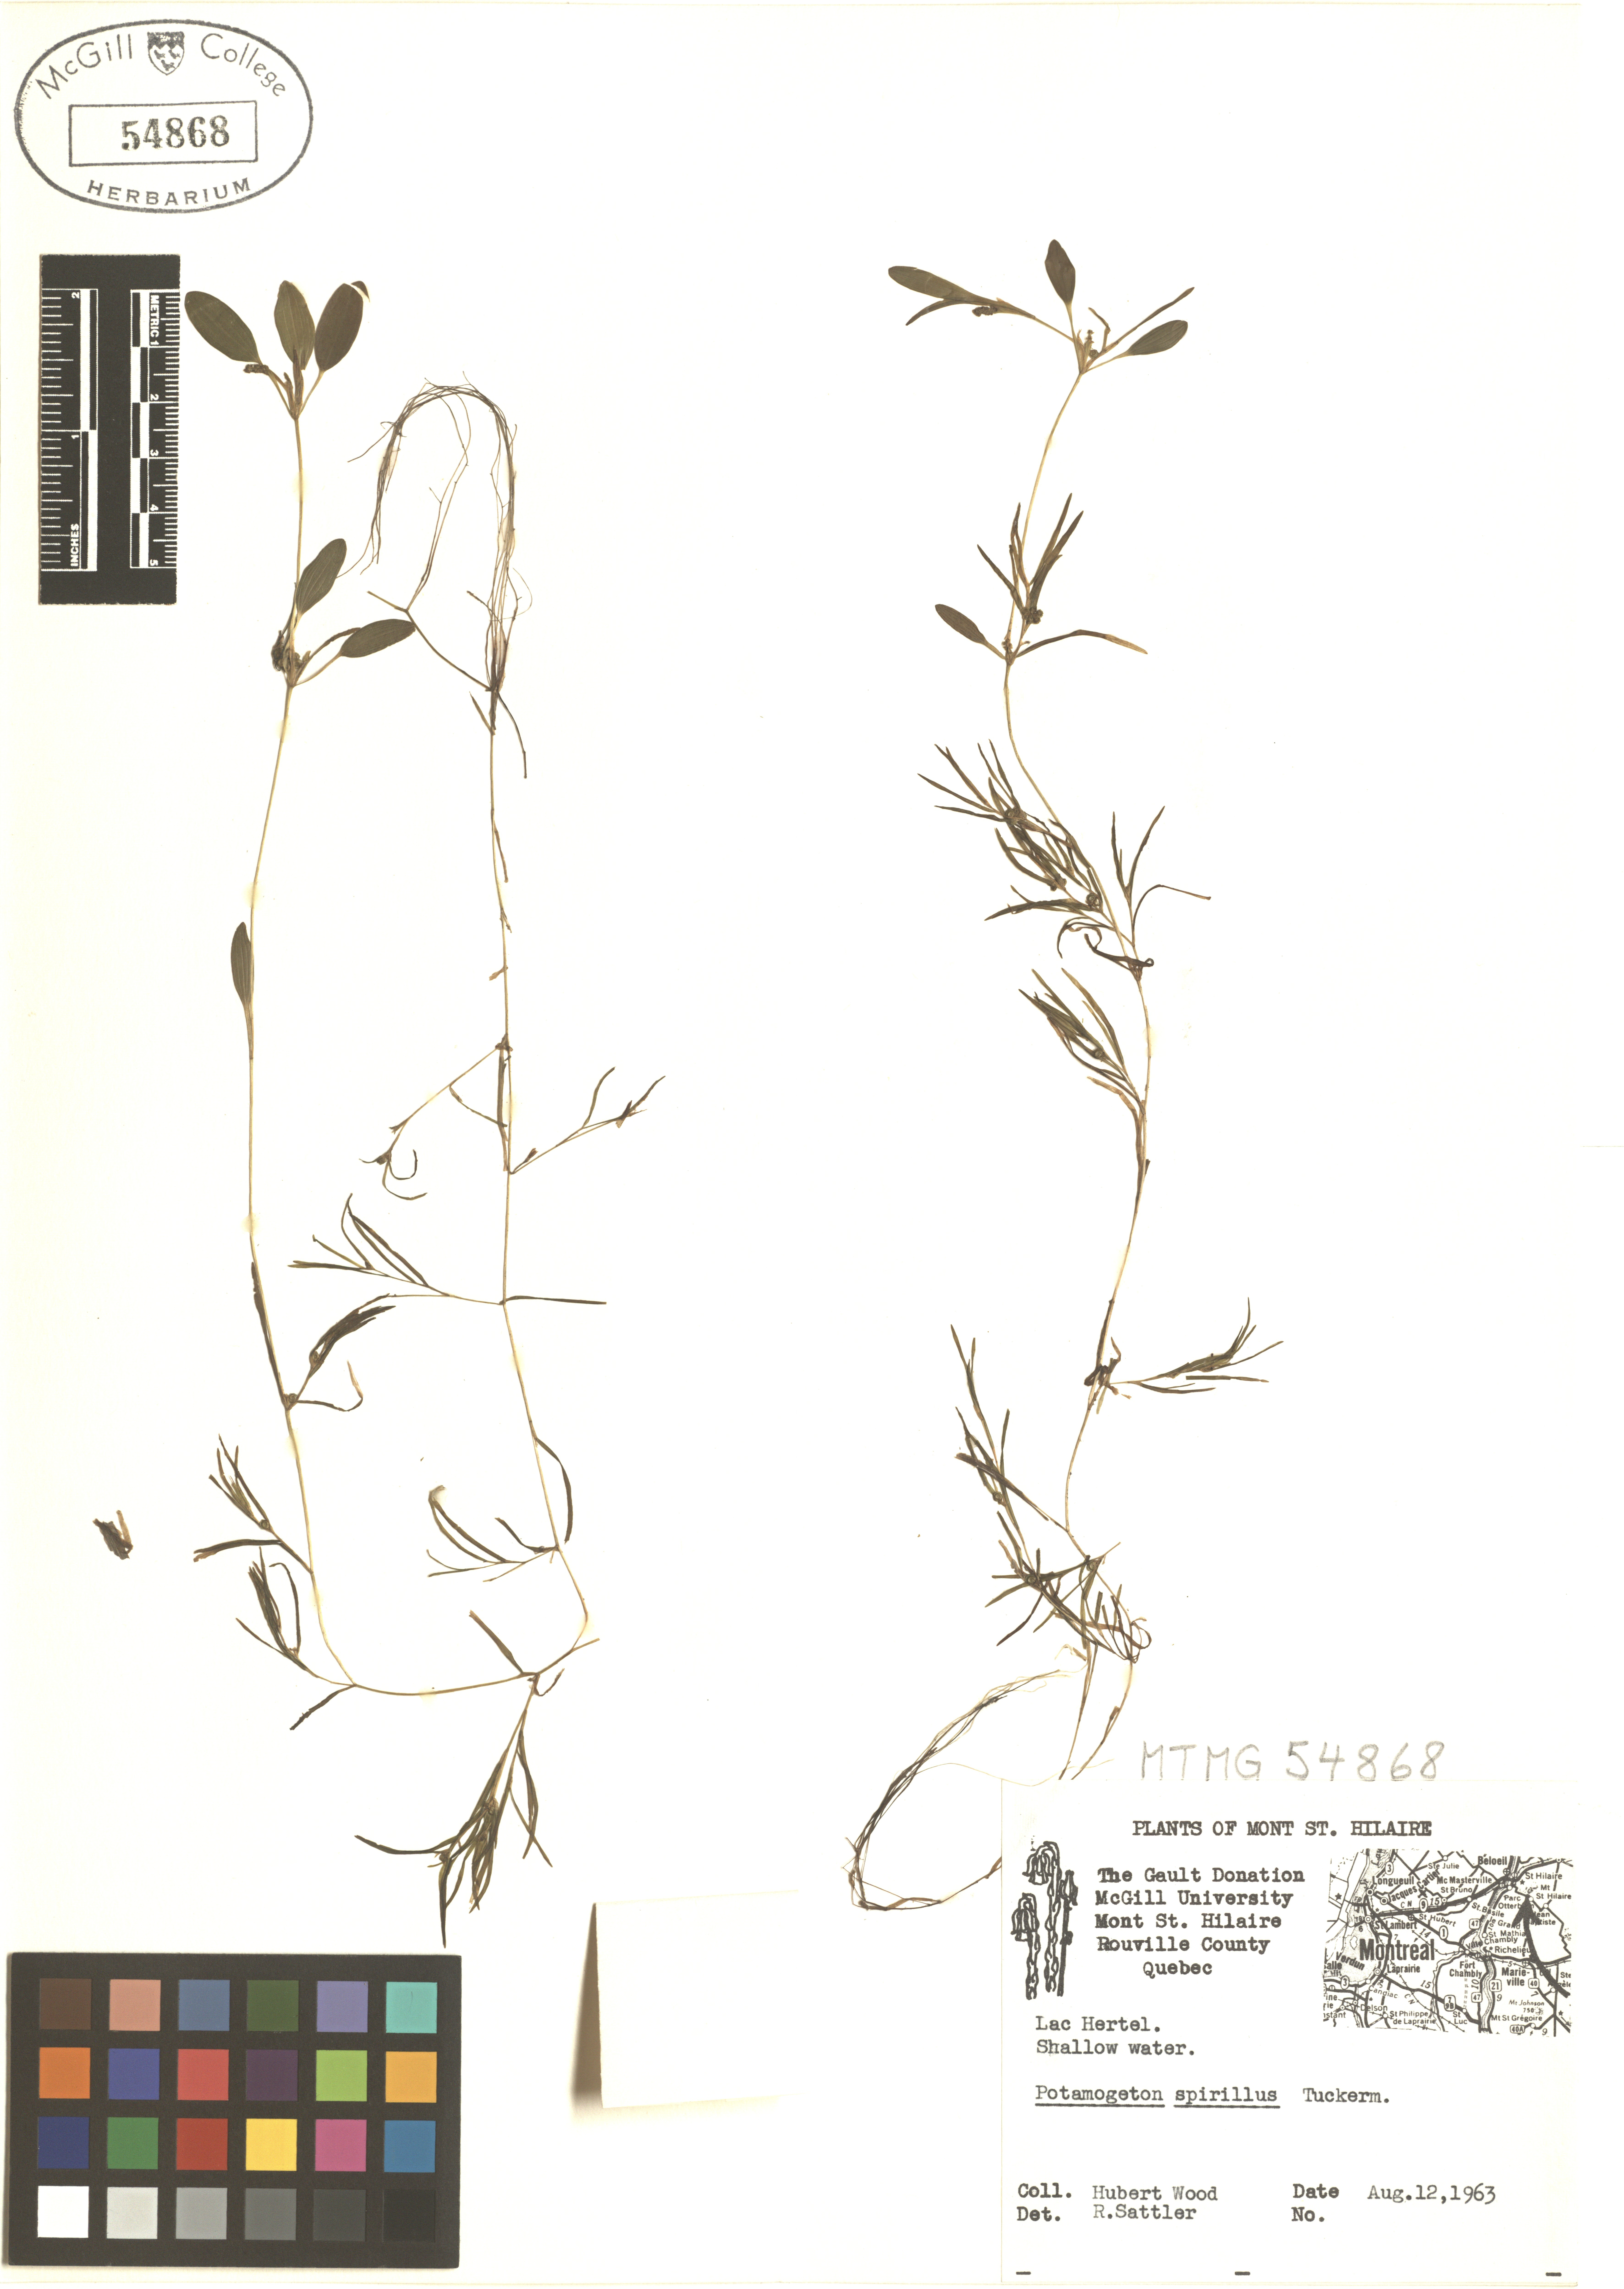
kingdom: Plantae
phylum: Tracheophyta
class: Liliopsida
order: Alismatales
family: Potamogetonaceae
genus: Potamogeton
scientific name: Potamogeton spirillus
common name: Northern snail-seed pondweed
